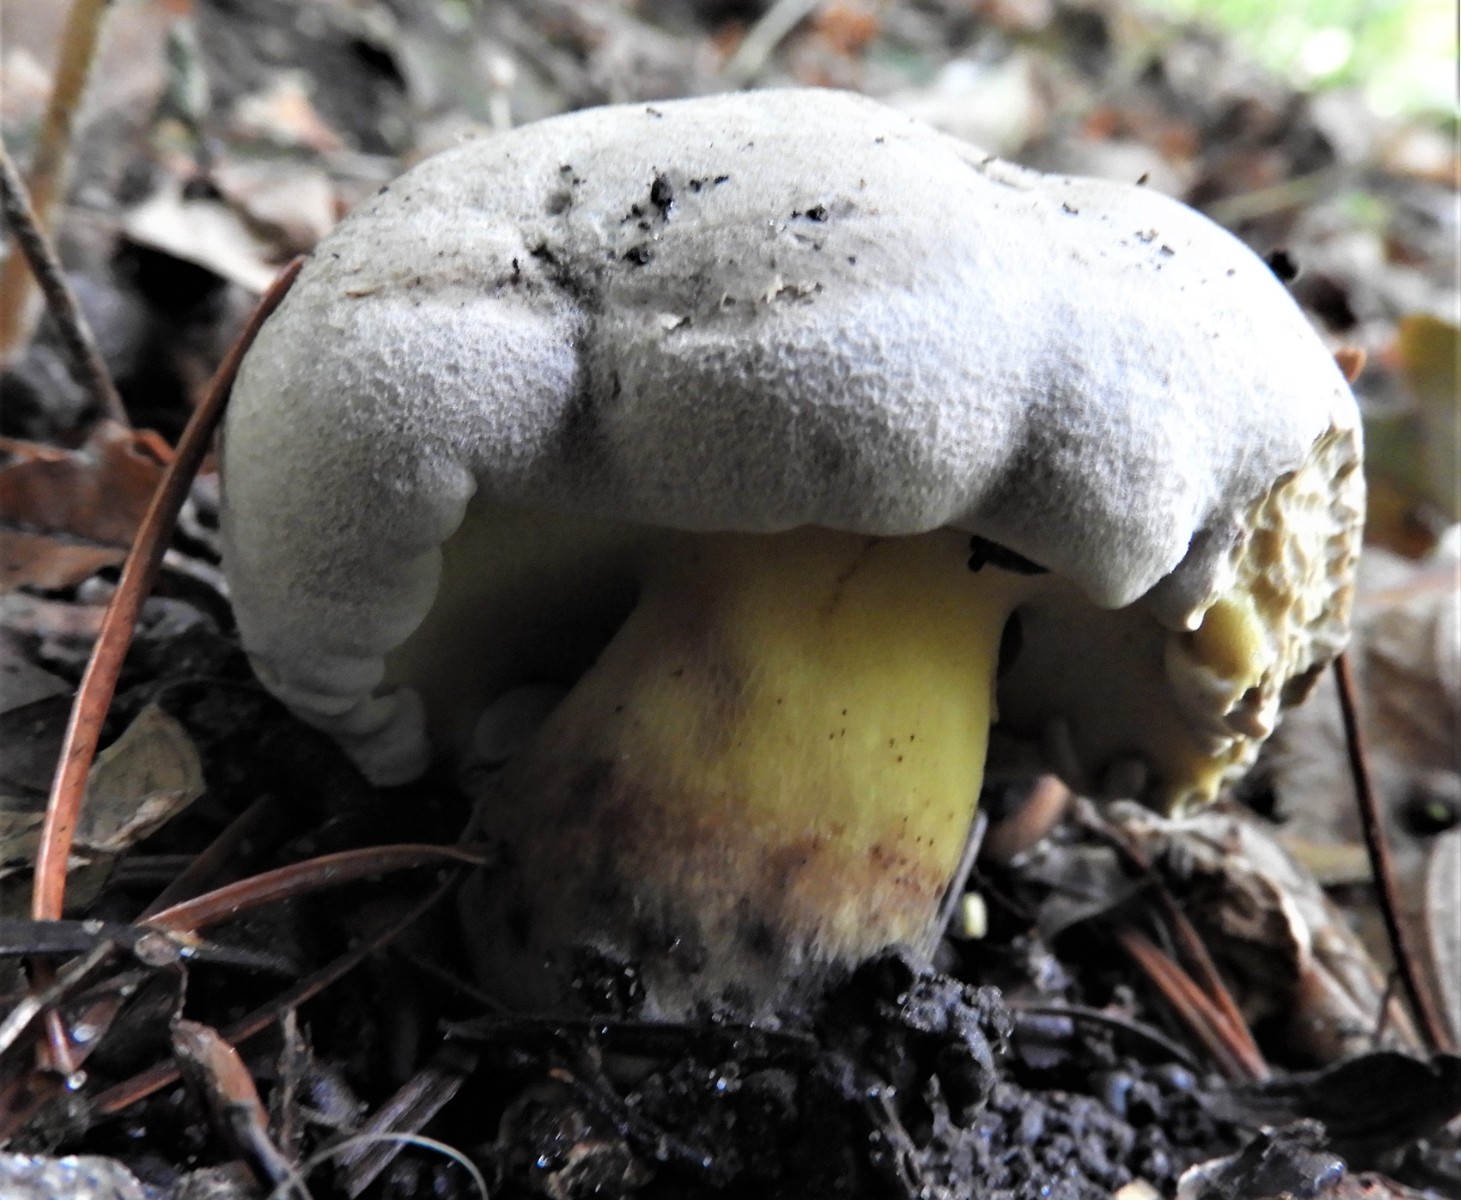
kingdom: Fungi
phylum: Basidiomycota
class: Agaricomycetes
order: Boletales
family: Boletaceae
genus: Caloboletus
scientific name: Caloboletus radicans
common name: rod-rørhat
